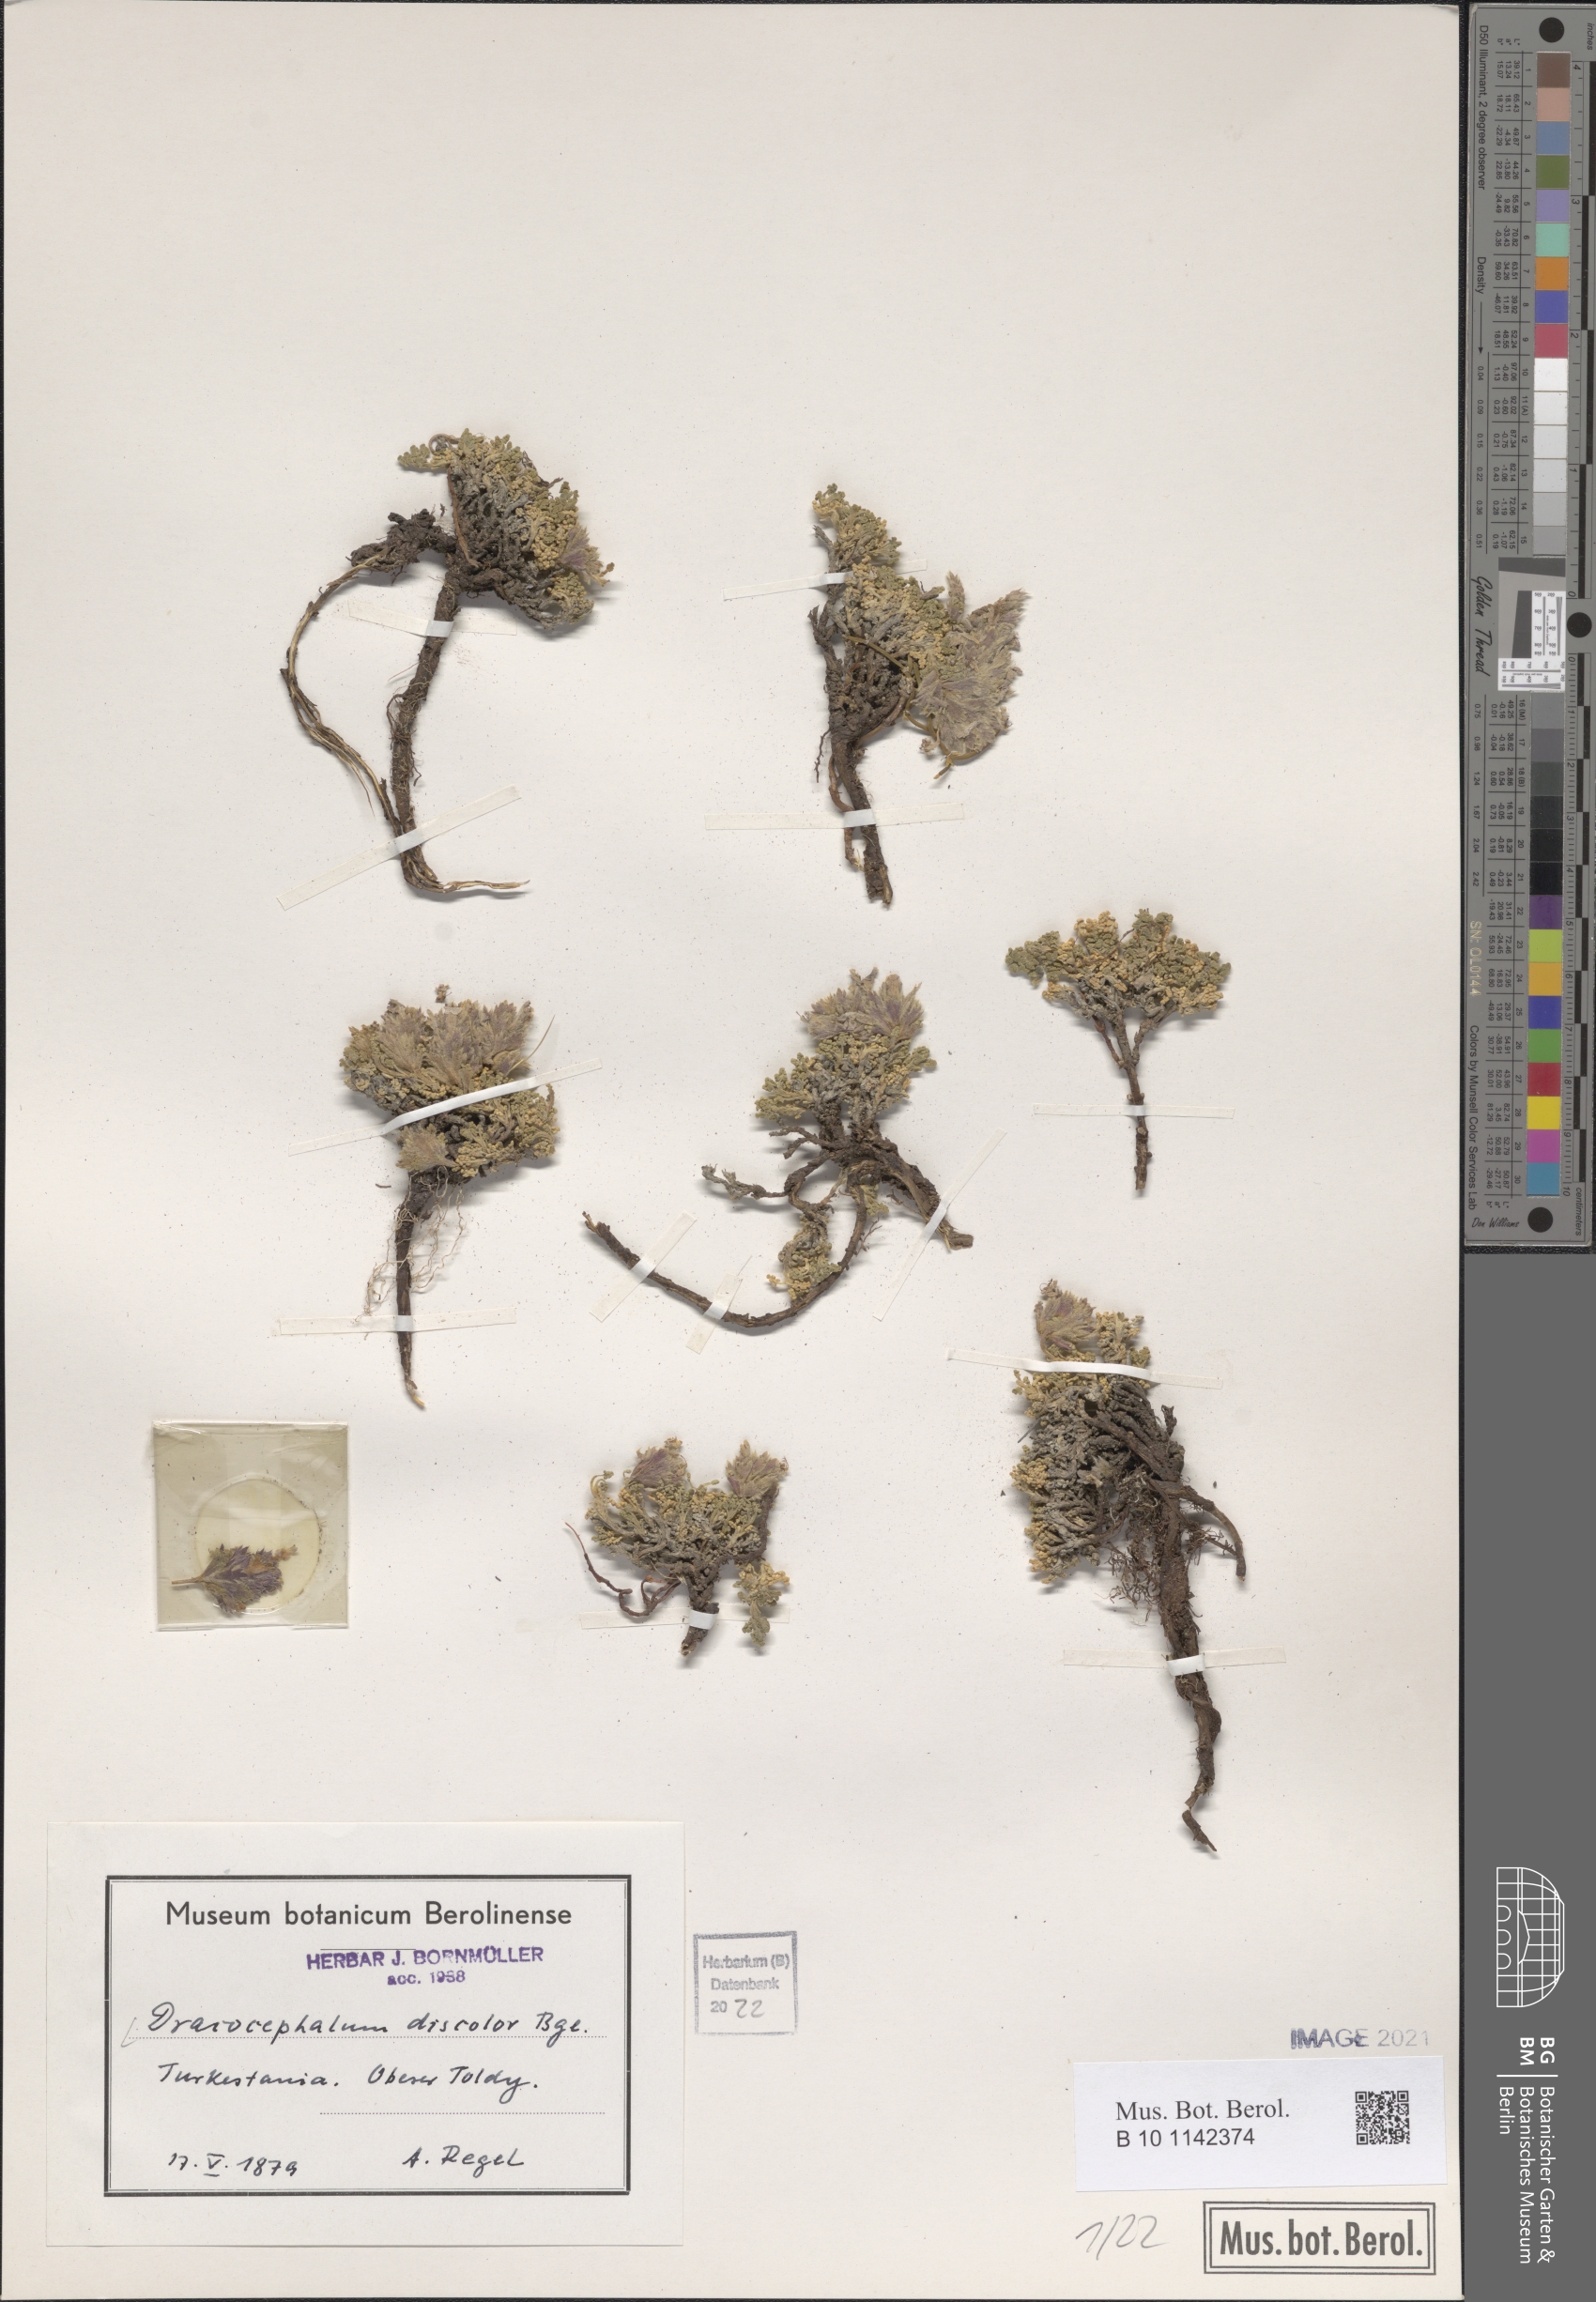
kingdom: Plantae
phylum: Tracheophyta
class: Magnoliopsida
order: Lamiales
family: Lamiaceae
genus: Dracocephalum
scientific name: Dracocephalum discolor
